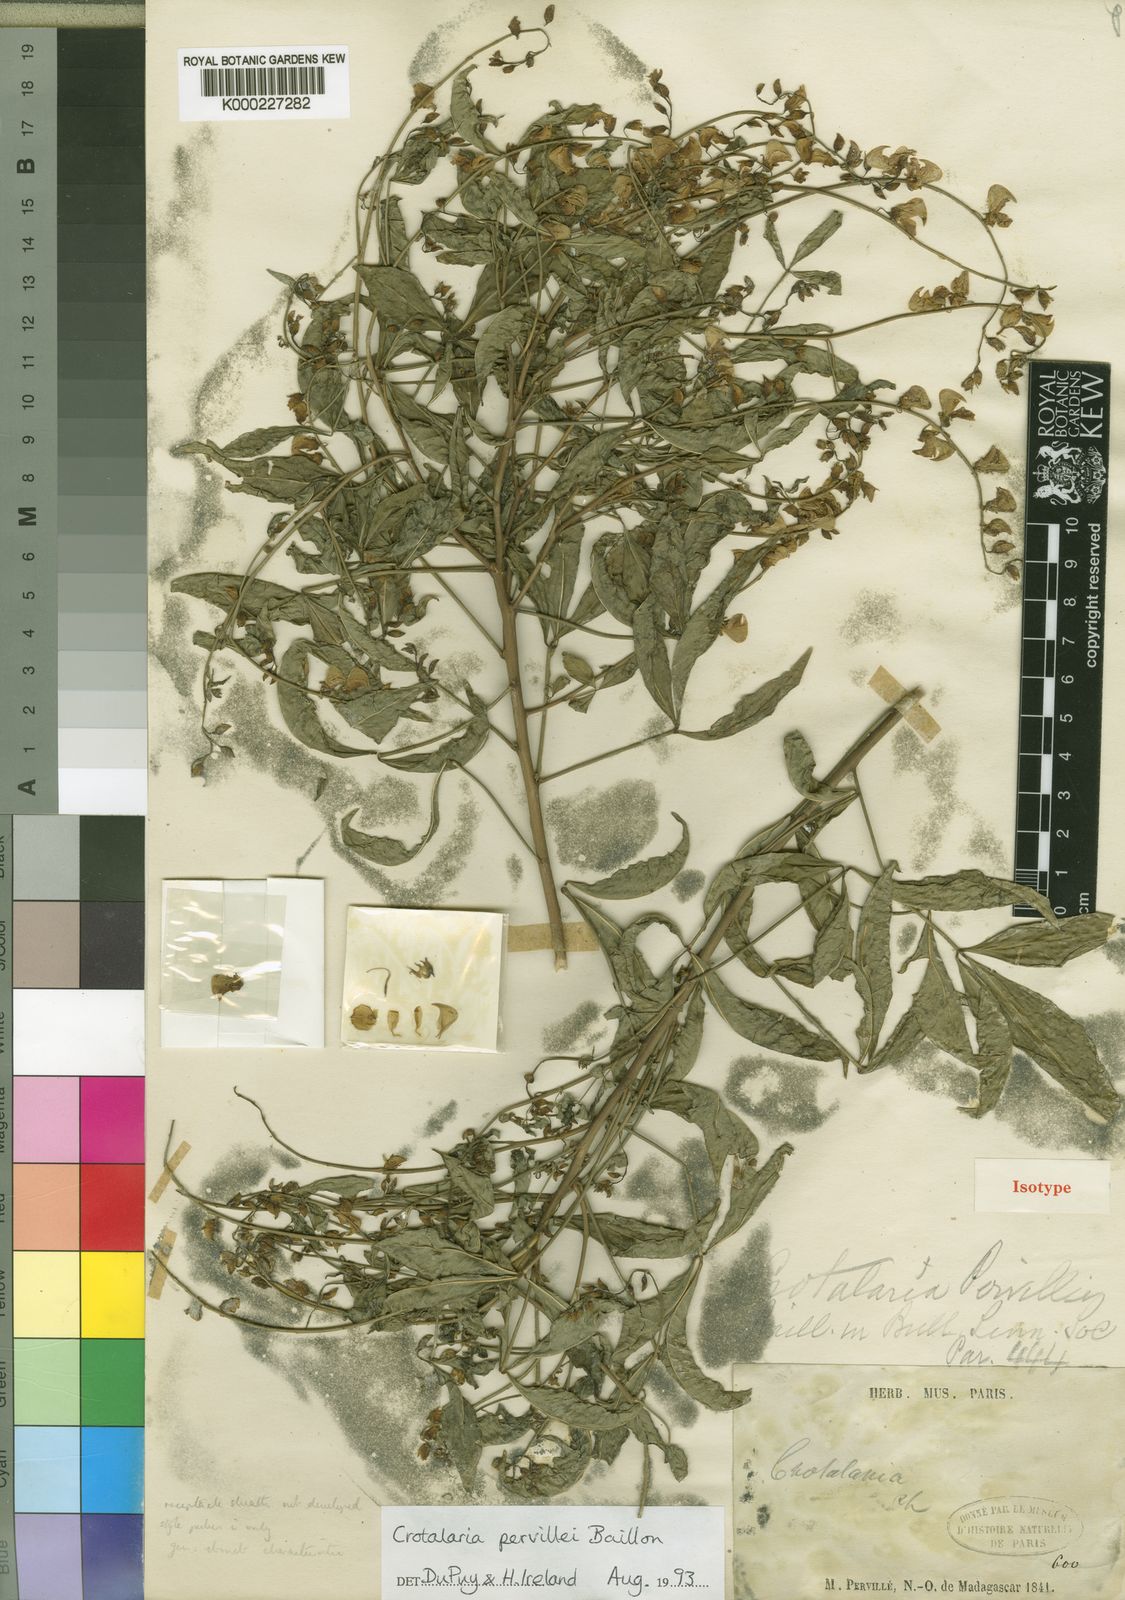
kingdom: Plantae
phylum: Tracheophyta
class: Magnoliopsida
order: Fabales
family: Fabaceae
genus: Crotalaria
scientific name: Crotalaria pervillei
